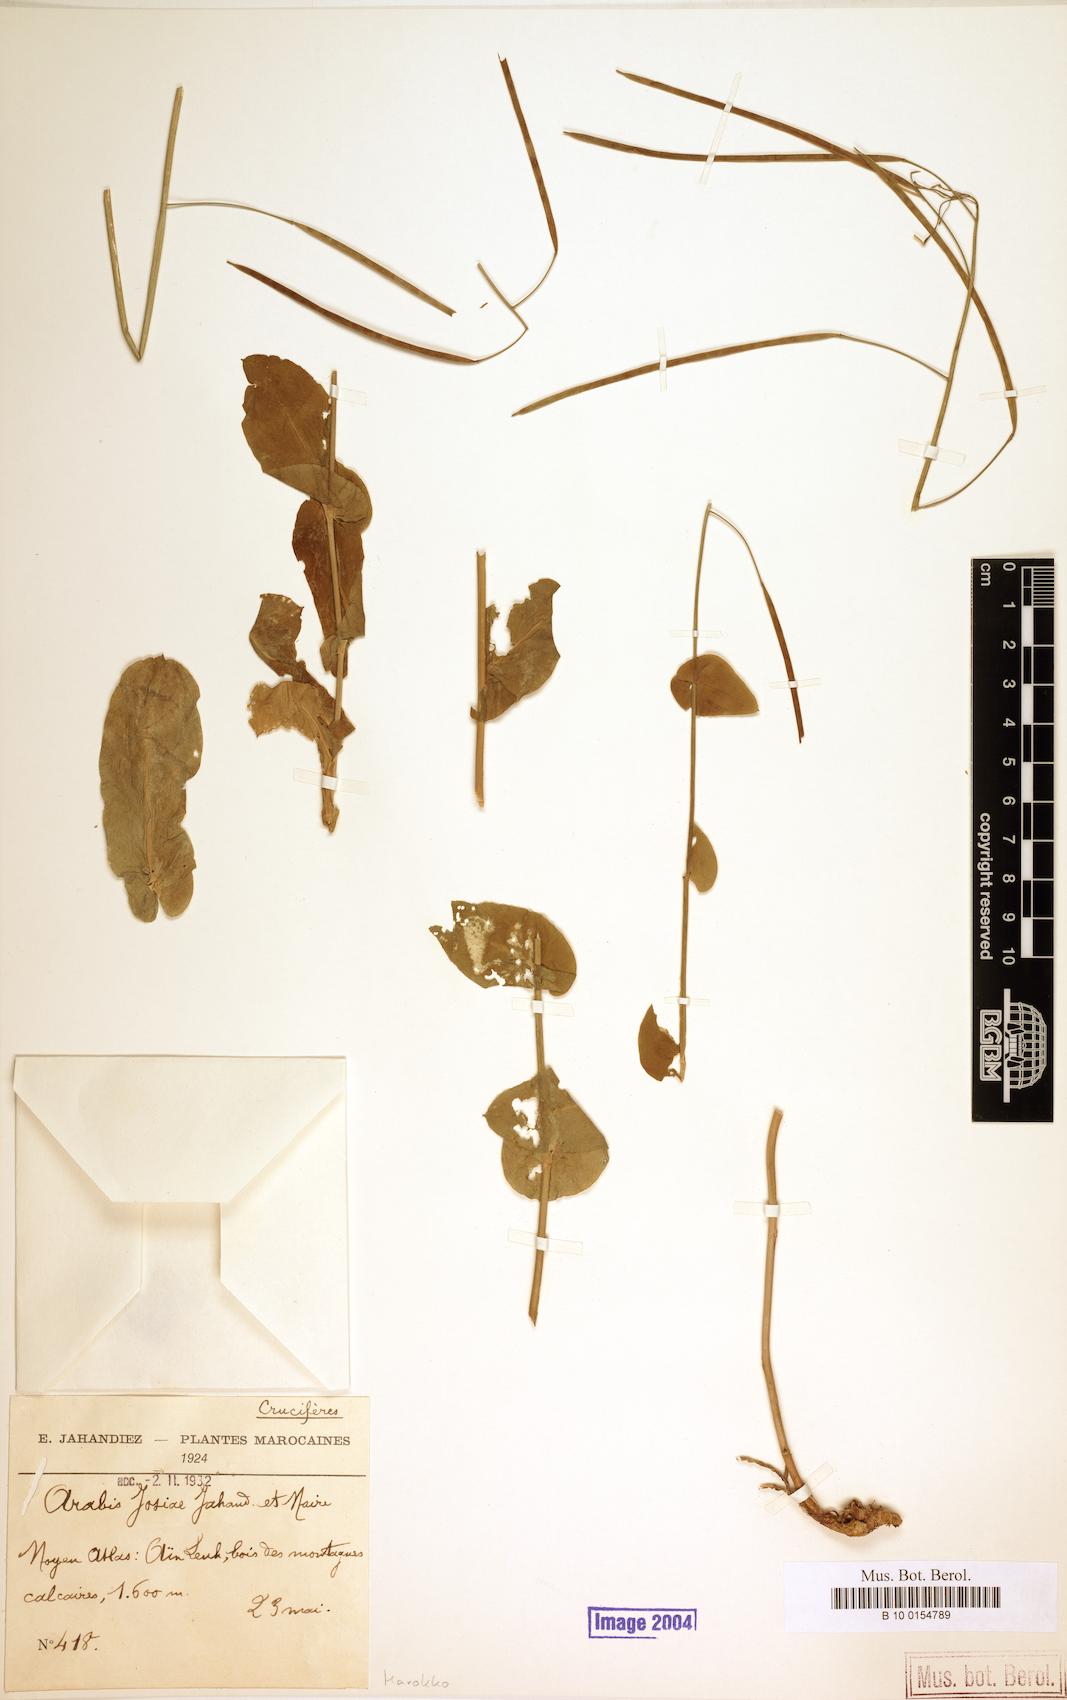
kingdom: Plantae
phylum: Tracheophyta
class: Magnoliopsida
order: Brassicales
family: Brassicaceae
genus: Arabis
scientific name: Arabis josiae
